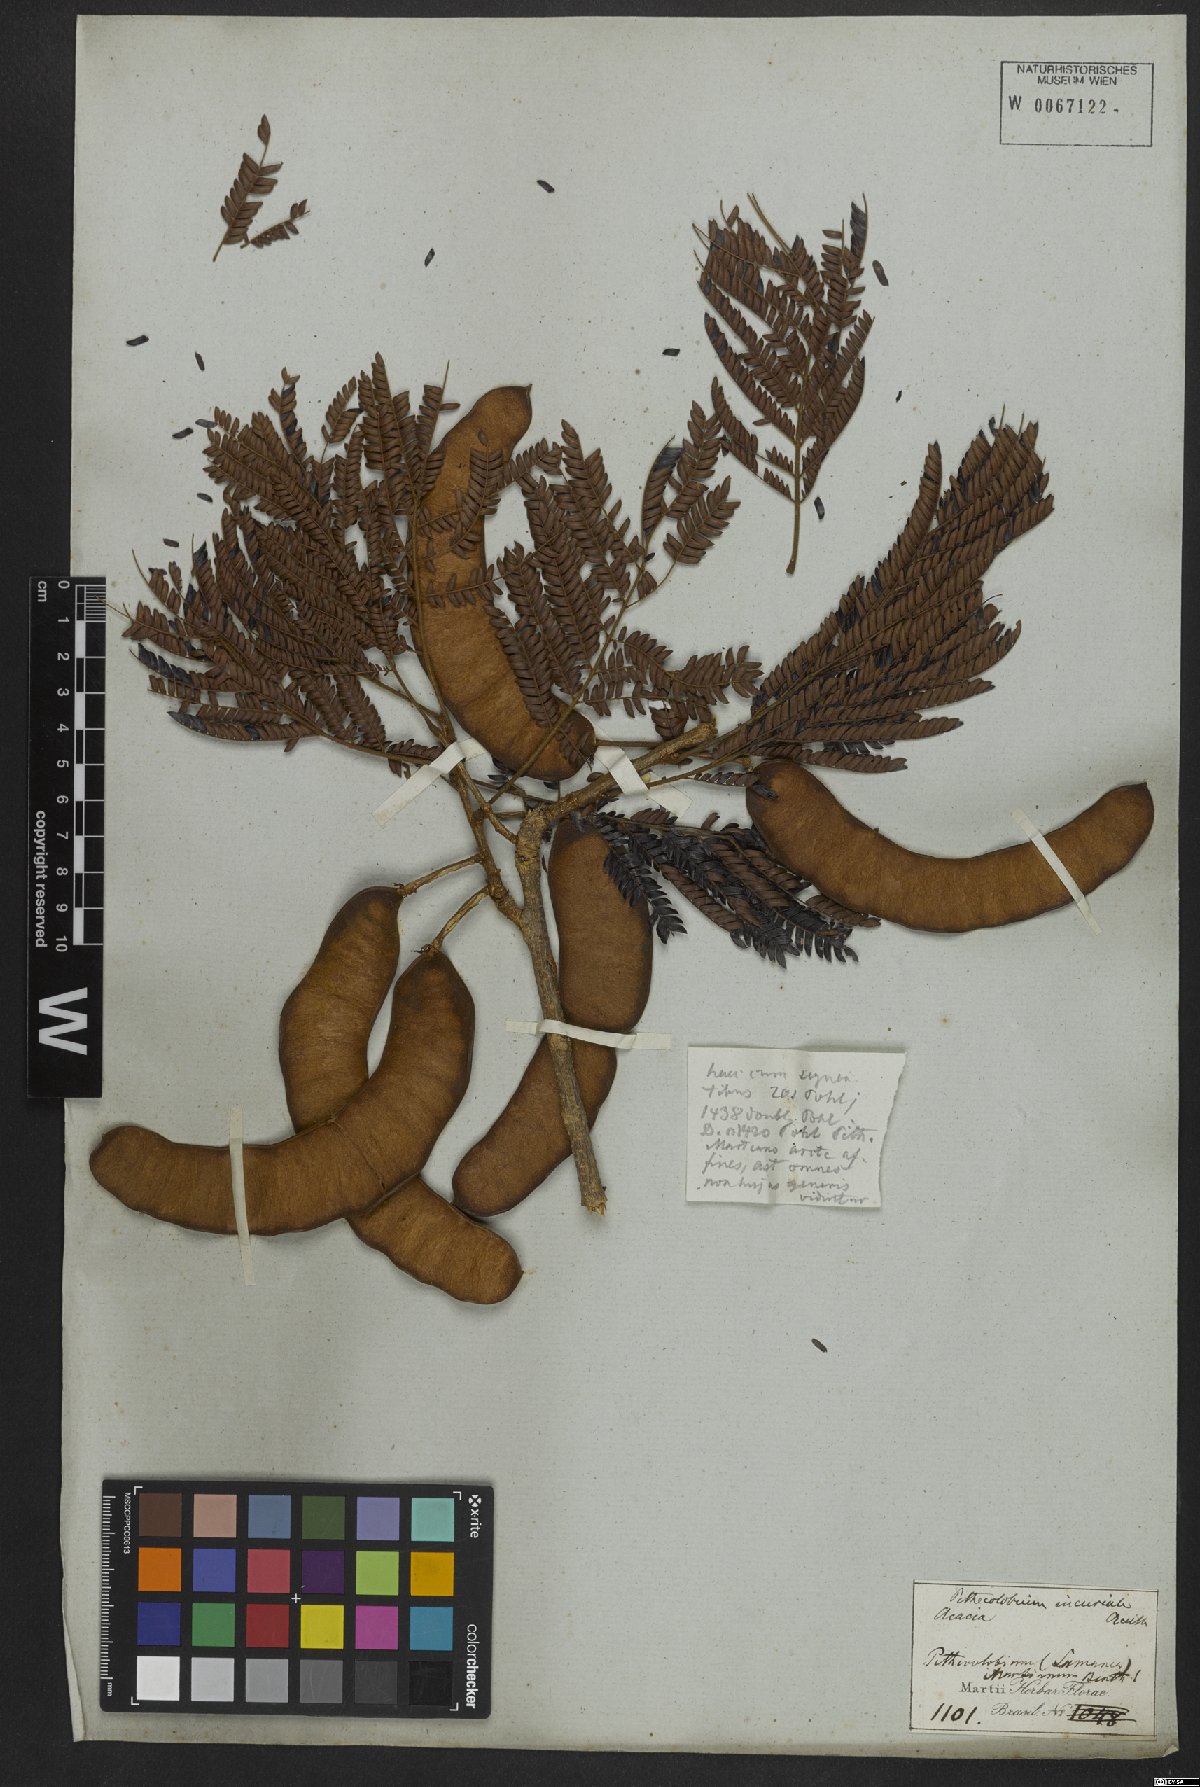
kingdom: Plantae
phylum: Tracheophyta
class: Magnoliopsida
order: Fabales
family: Fabaceae
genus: Leucochloron
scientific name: Leucochloron incuriale
